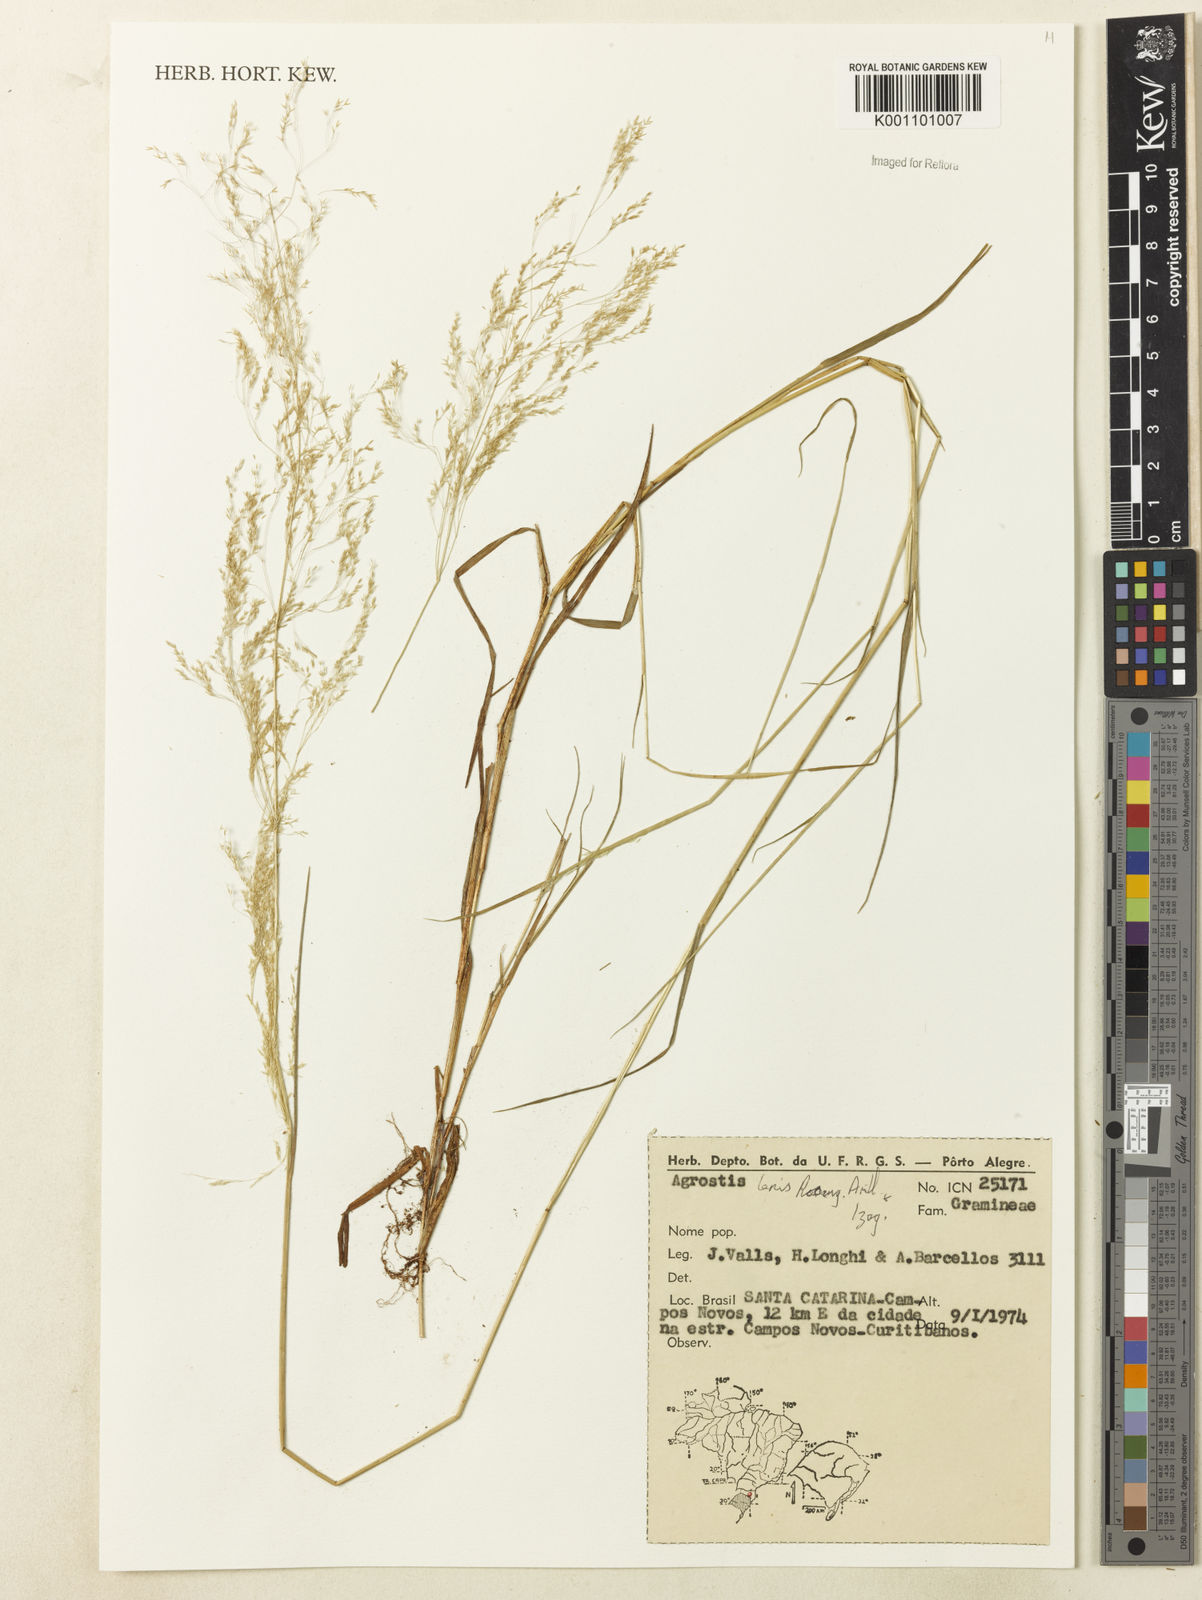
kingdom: Plantae
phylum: Tracheophyta
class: Liliopsida
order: Poales
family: Poaceae
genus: Agrostis
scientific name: Agrostis
